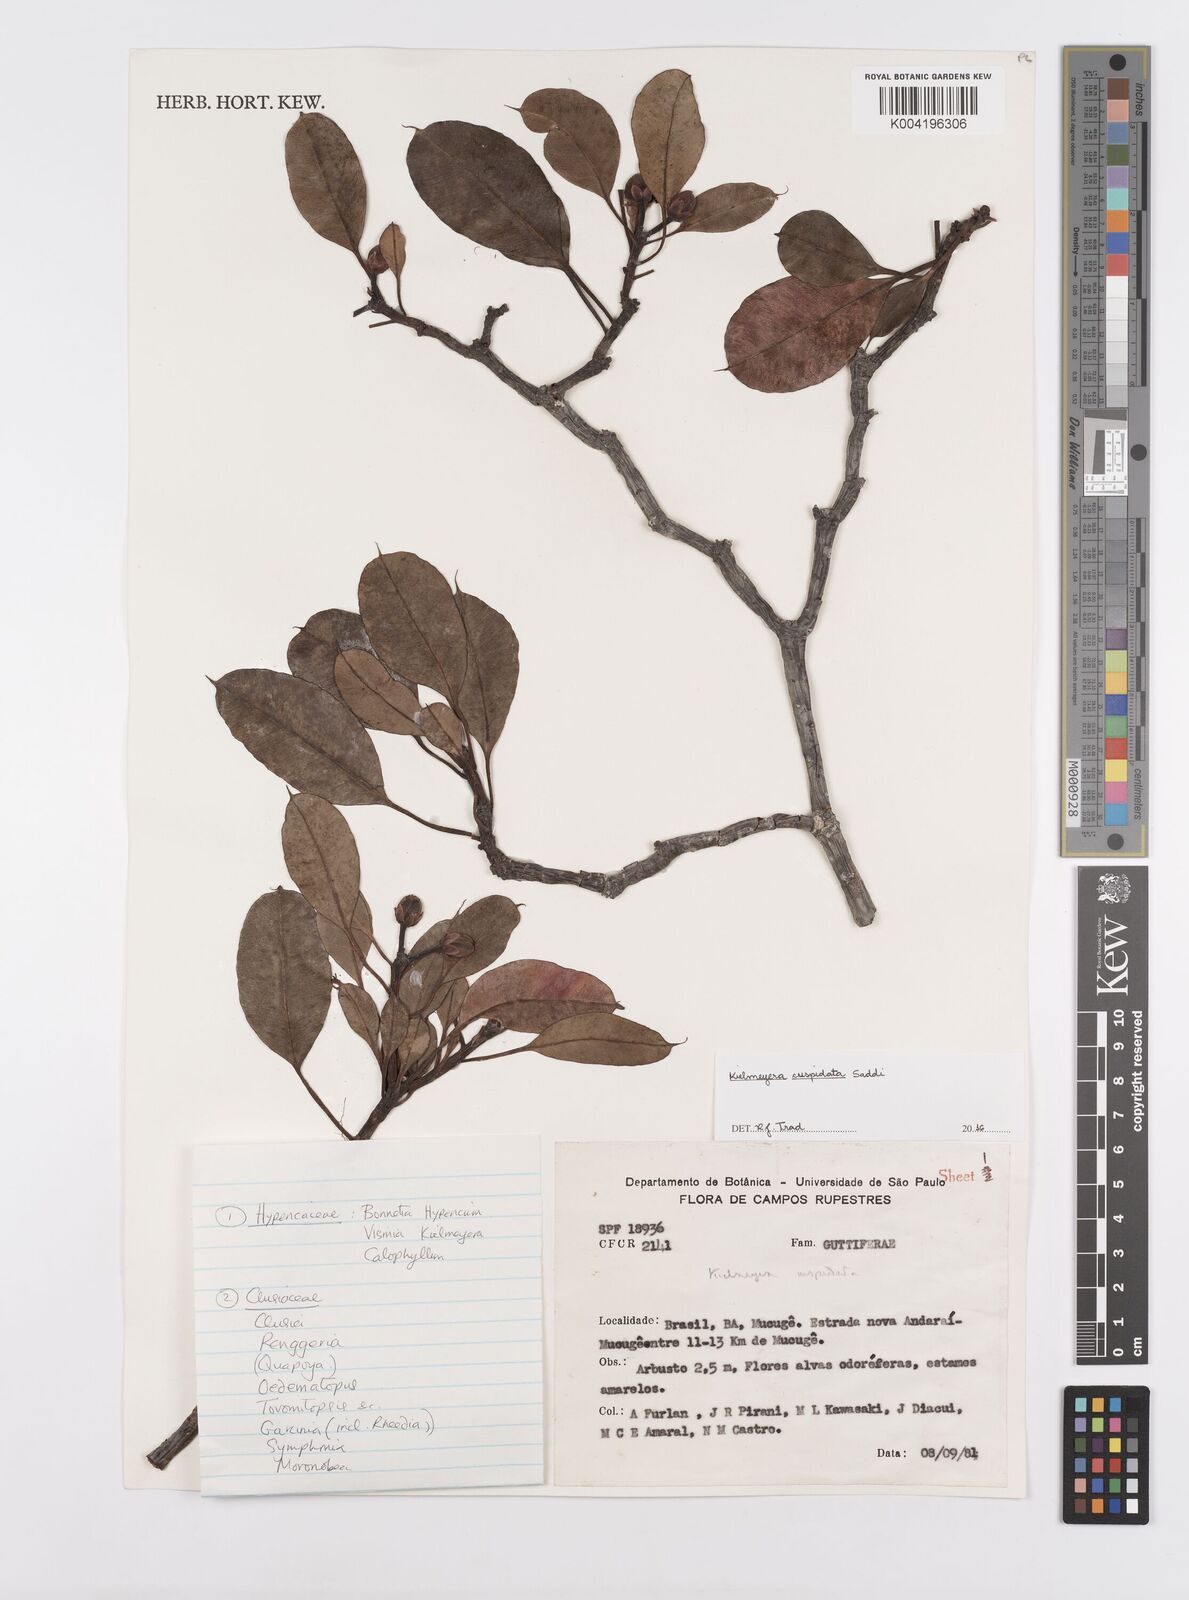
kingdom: Plantae
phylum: Tracheophyta
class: Magnoliopsida
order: Malpighiales
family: Calophyllaceae
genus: Kielmeyera
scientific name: Kielmeyera cuspidata
